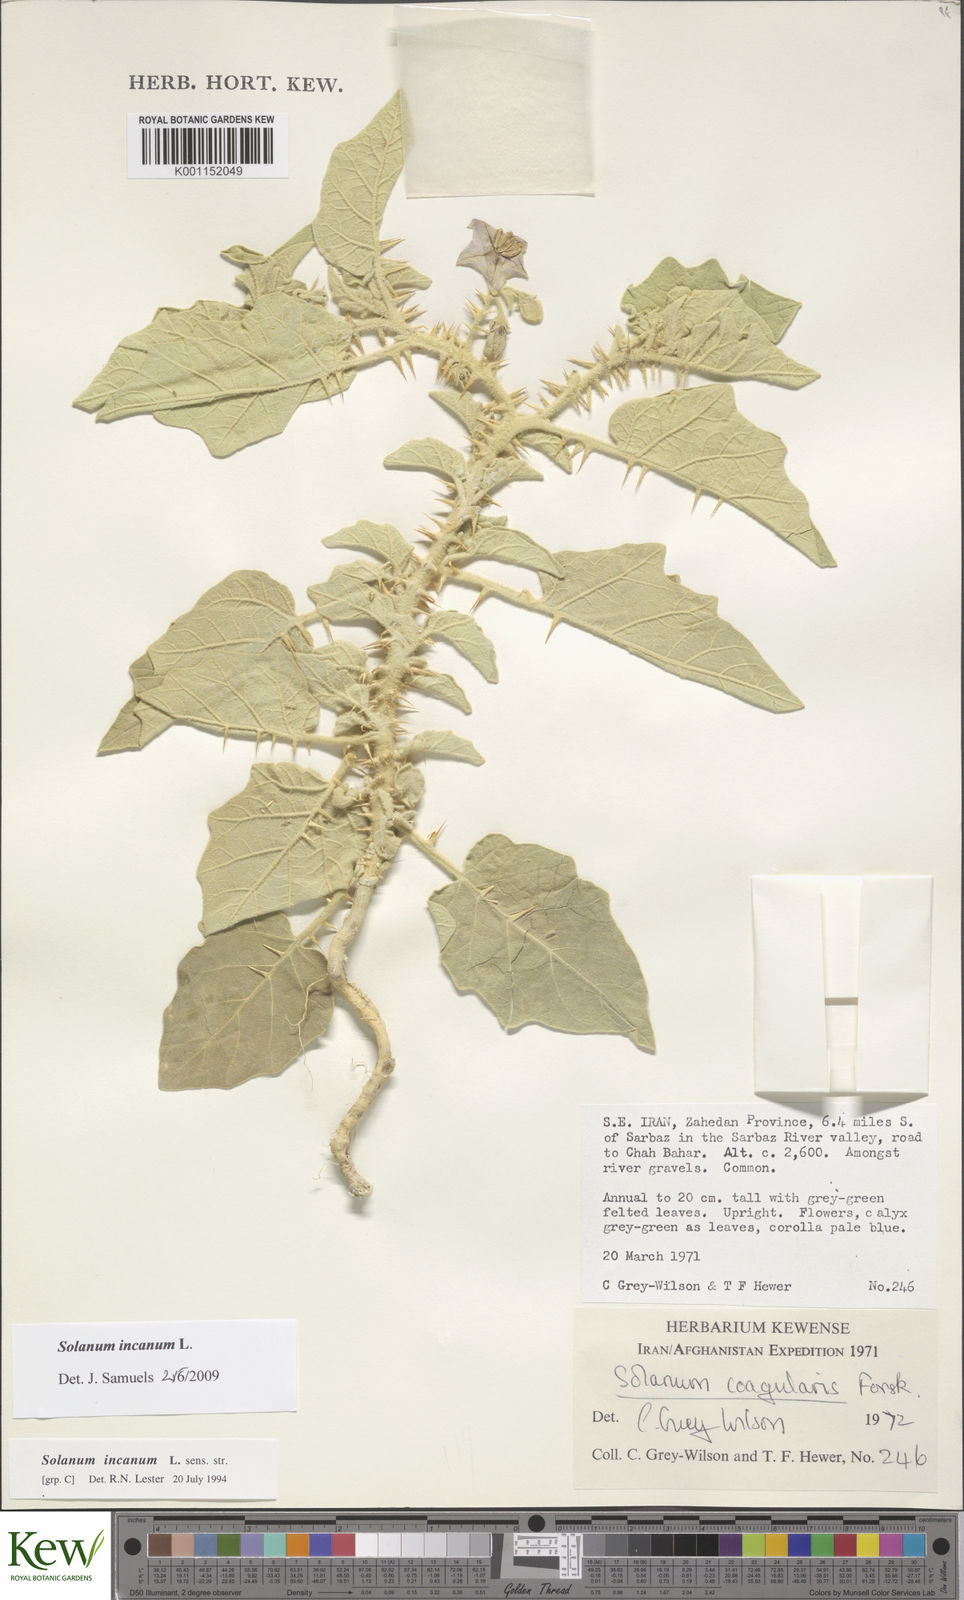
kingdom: Plantae
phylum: Tracheophyta
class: Magnoliopsida
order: Solanales
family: Solanaceae
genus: Solanum
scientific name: Solanum incanum
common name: Bitter apple
